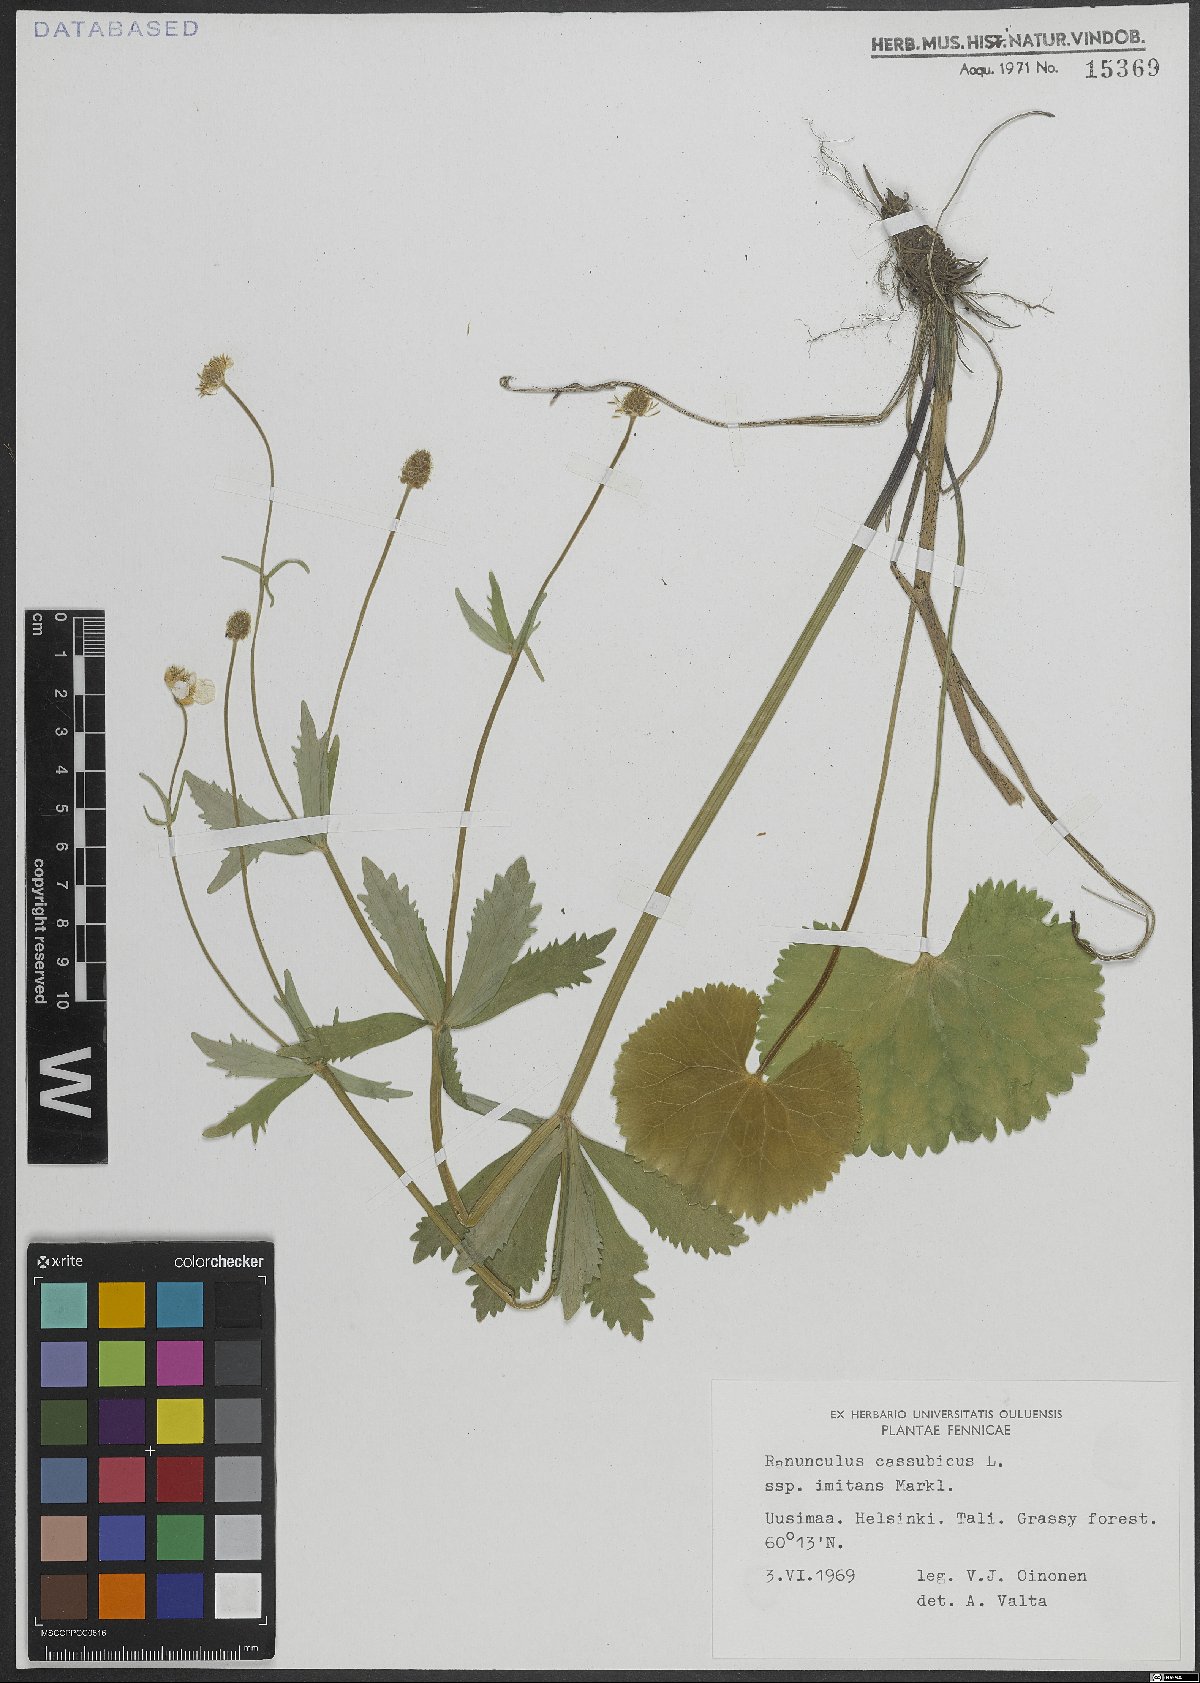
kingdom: Plantae
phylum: Tracheophyta
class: Magnoliopsida
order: Ranunculales
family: Ranunculaceae
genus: Ranunculus
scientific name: Ranunculus cassubicus
